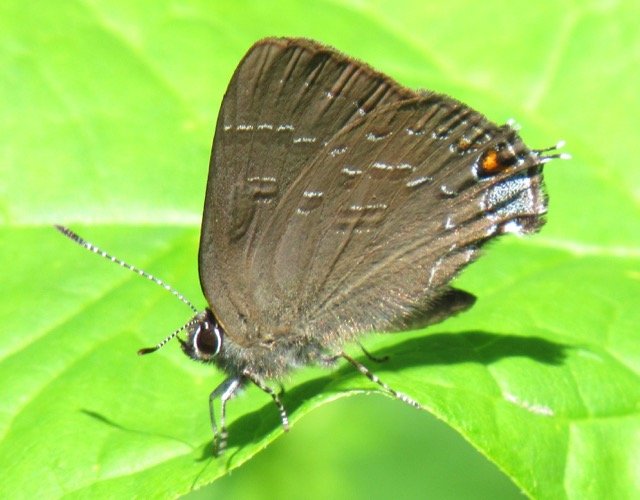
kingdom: Animalia
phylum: Arthropoda
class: Insecta
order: Lepidoptera
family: Lycaenidae
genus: Satyrium
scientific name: Satyrium calanus
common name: Banded Hairstreak
